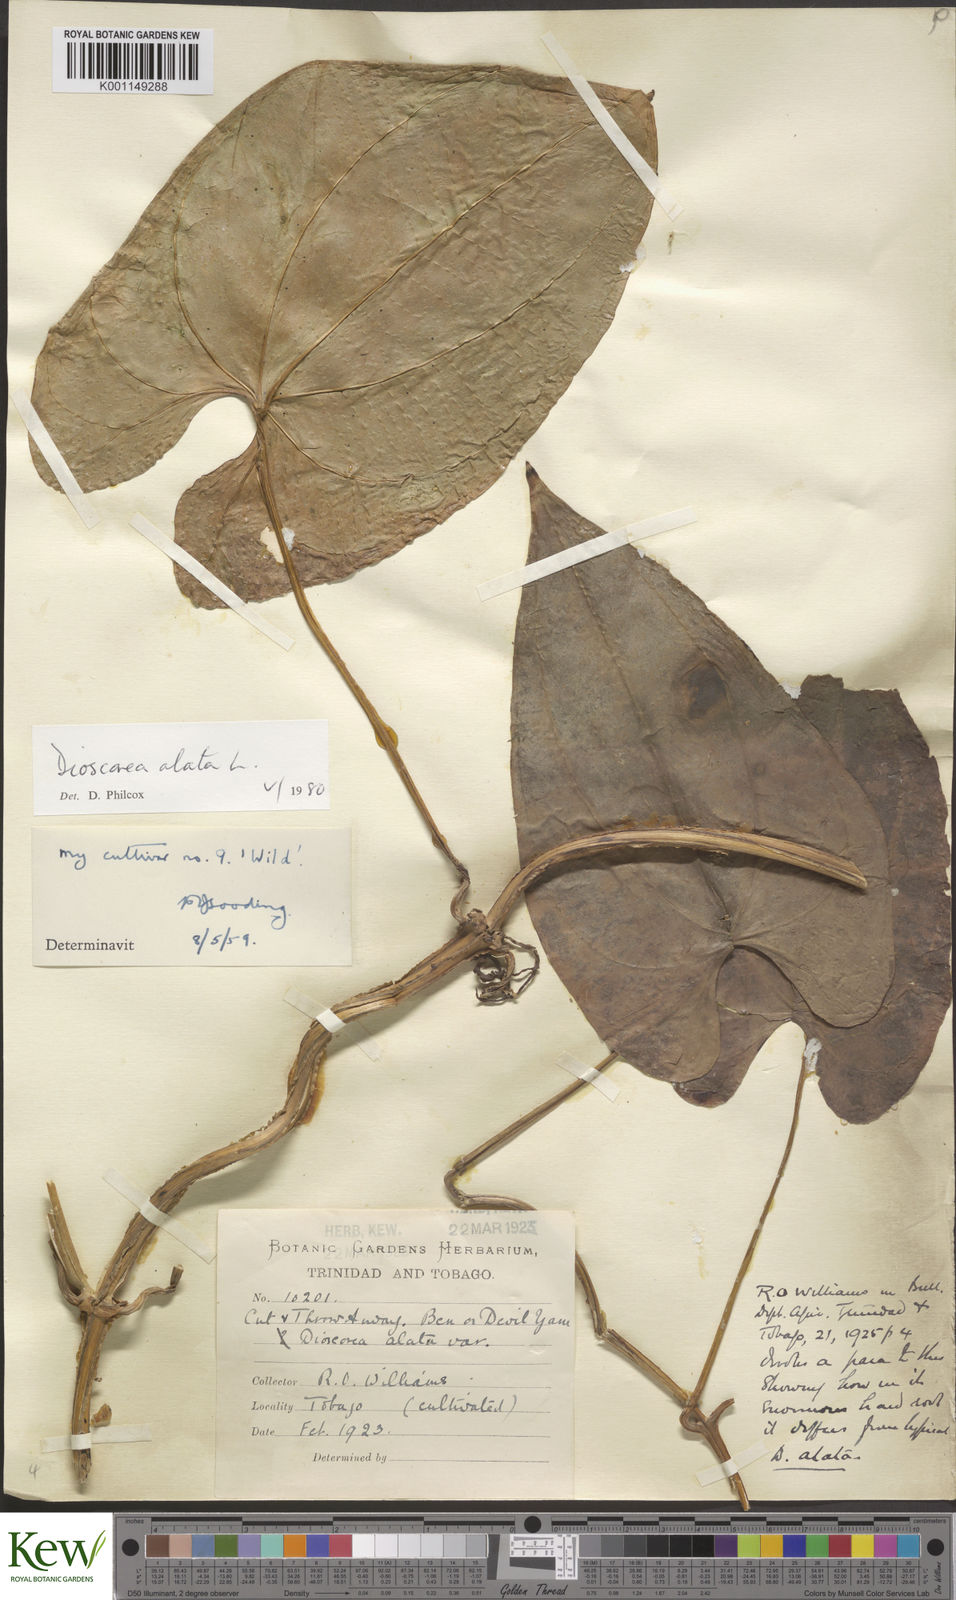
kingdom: Plantae
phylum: Tracheophyta
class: Liliopsida
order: Dioscoreales
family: Dioscoreaceae
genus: Dioscorea
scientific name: Dioscorea alata
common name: Water yam
